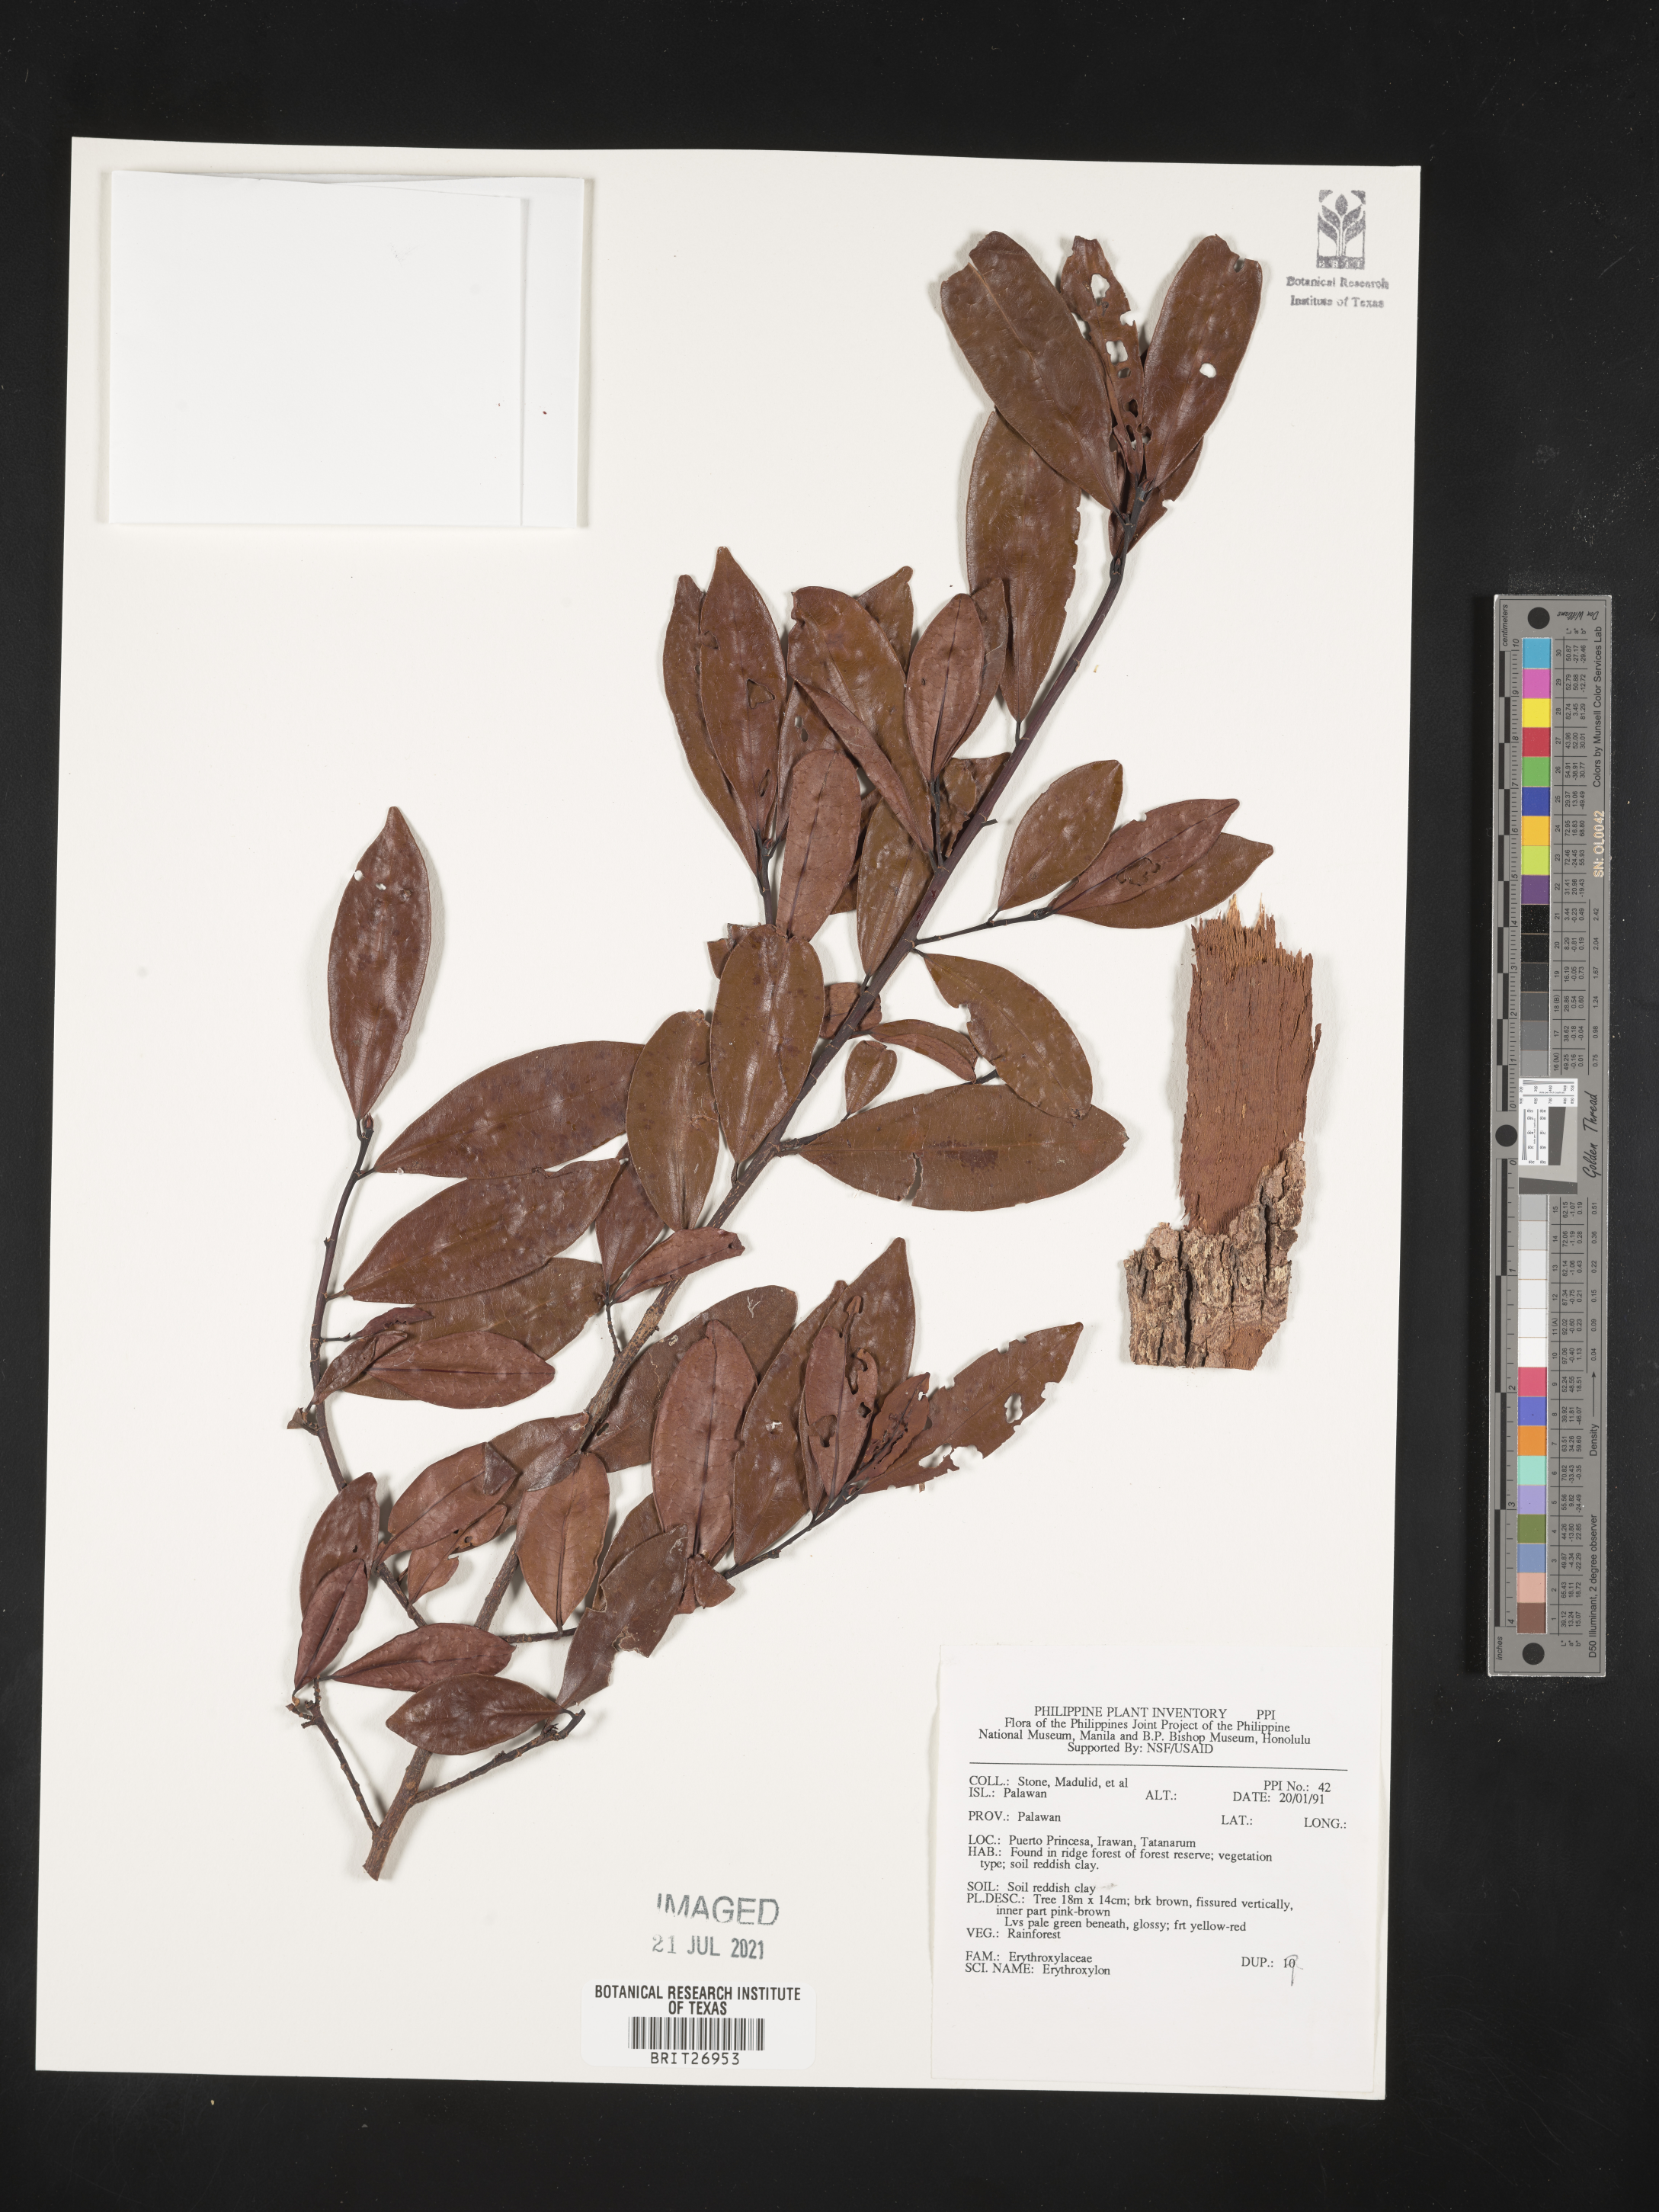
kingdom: Plantae
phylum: Tracheophyta
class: Magnoliopsida
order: Malpighiales
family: Erythroxylaceae
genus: Erythroxylum
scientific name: Erythroxylum
